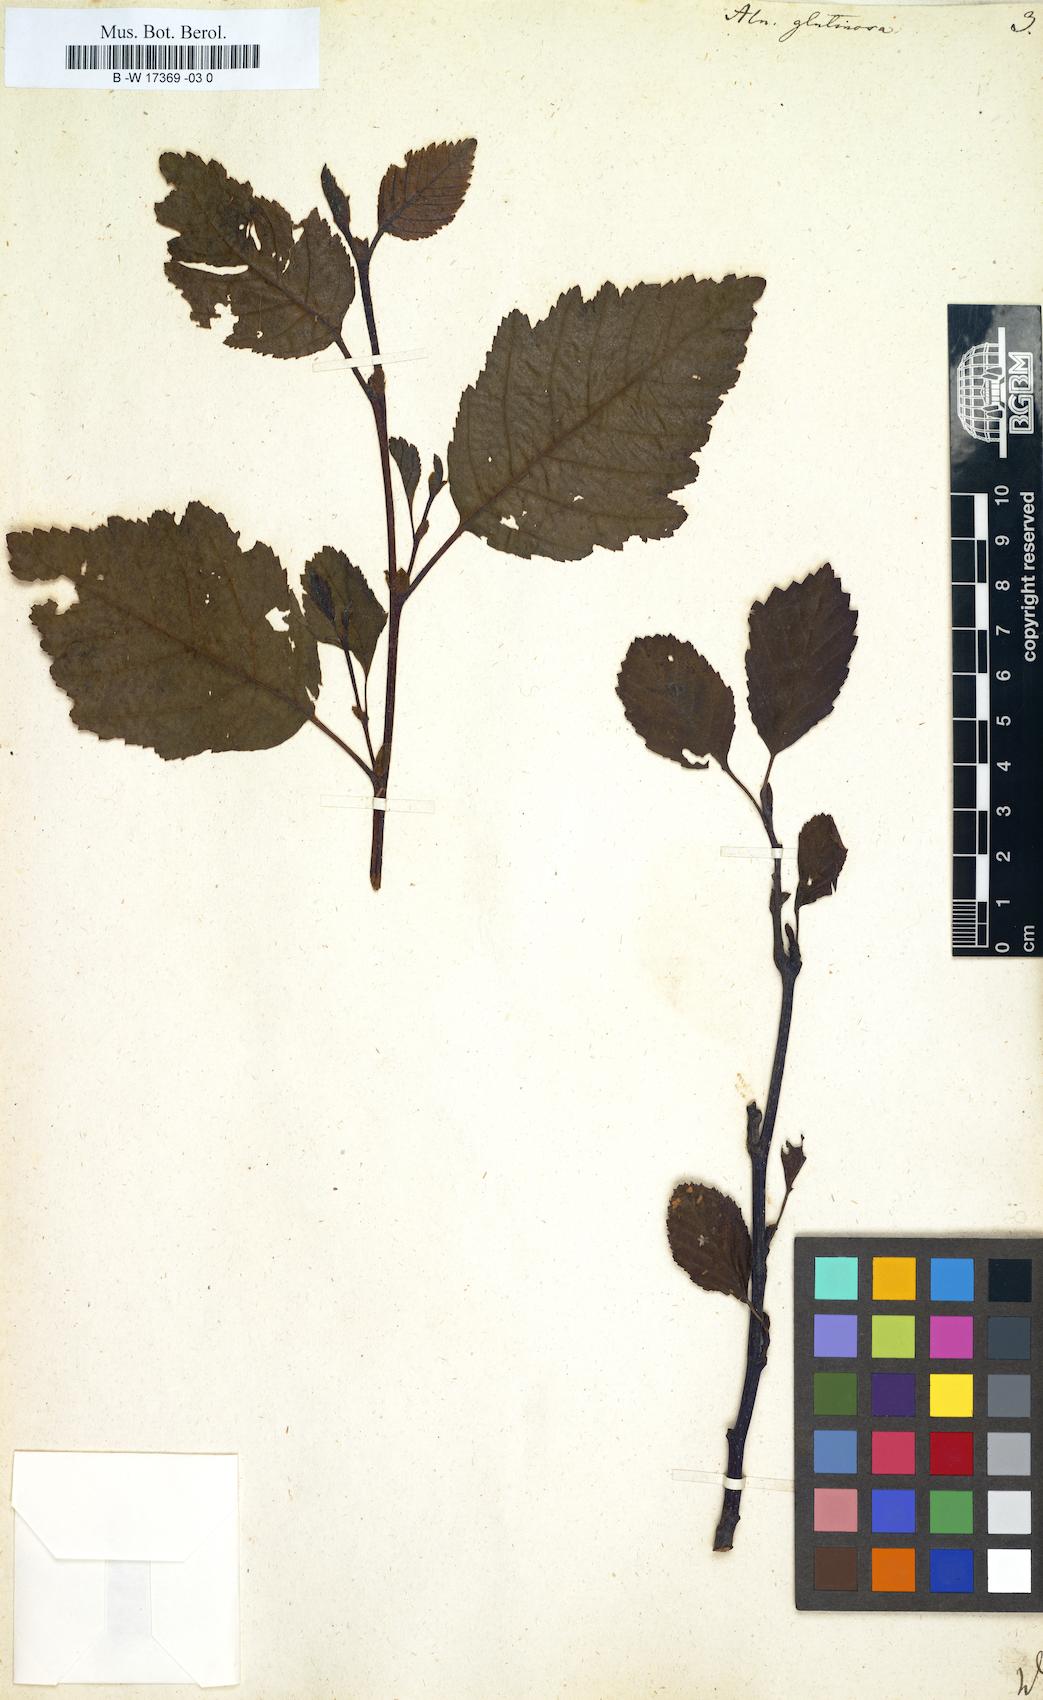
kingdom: Plantae
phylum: Tracheophyta
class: Magnoliopsida
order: Fagales
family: Betulaceae
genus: Alnus
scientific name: Alnus glutinosa
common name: Black alder
